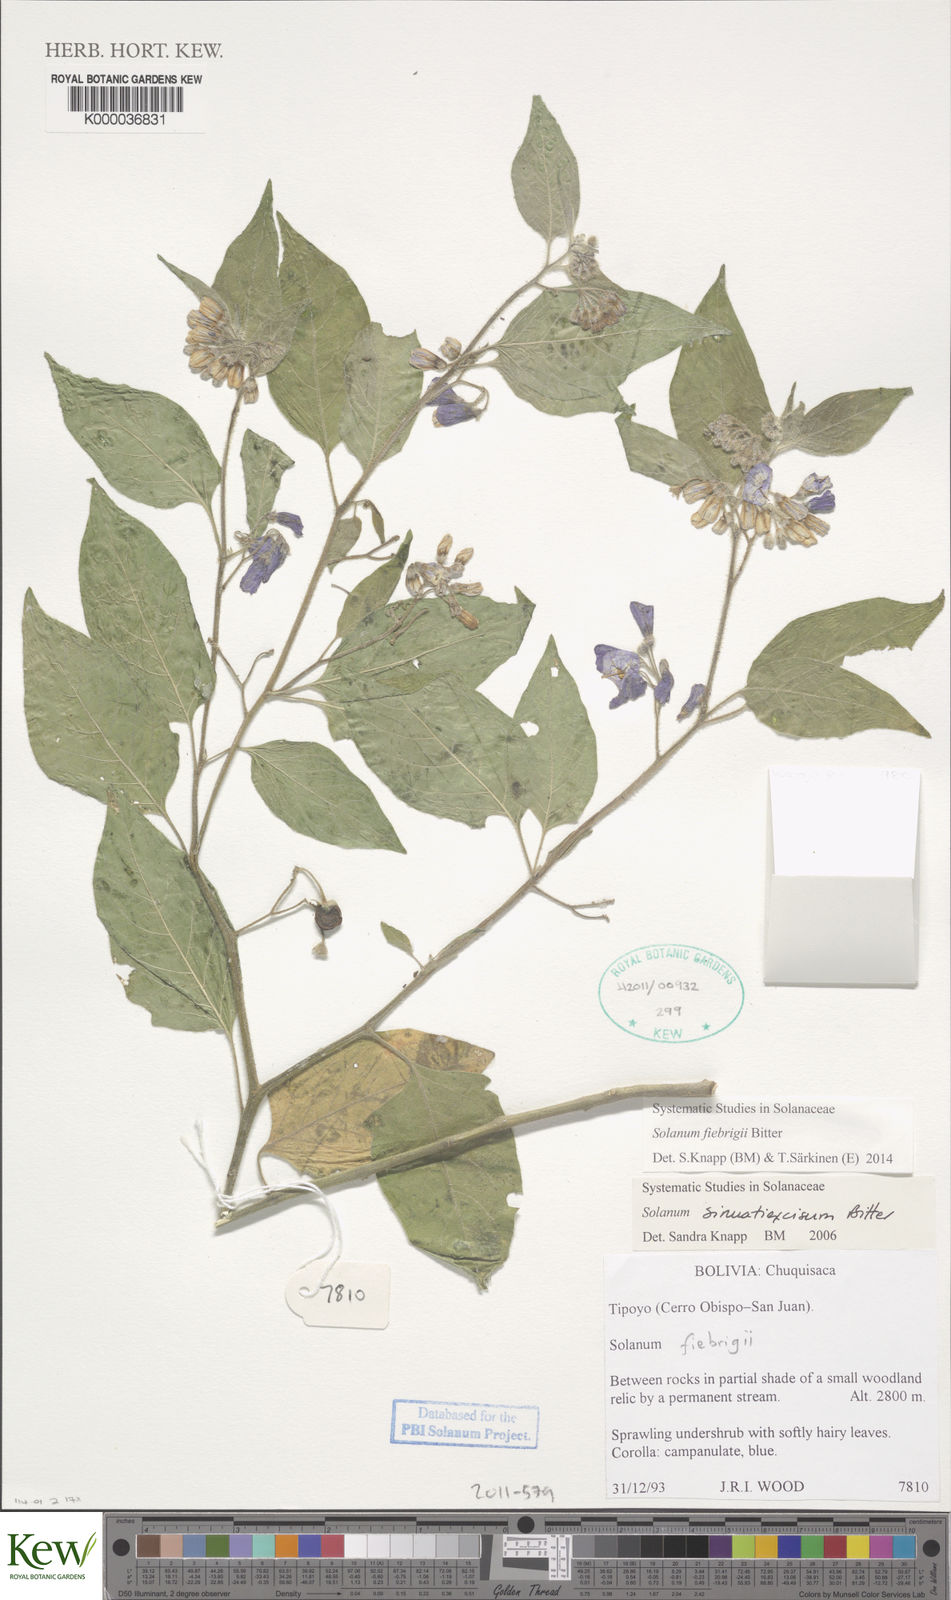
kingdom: Plantae
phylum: Tracheophyta
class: Magnoliopsida
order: Solanales
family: Solanaceae
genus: Solanum
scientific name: Solanum sinuatiexcisum
